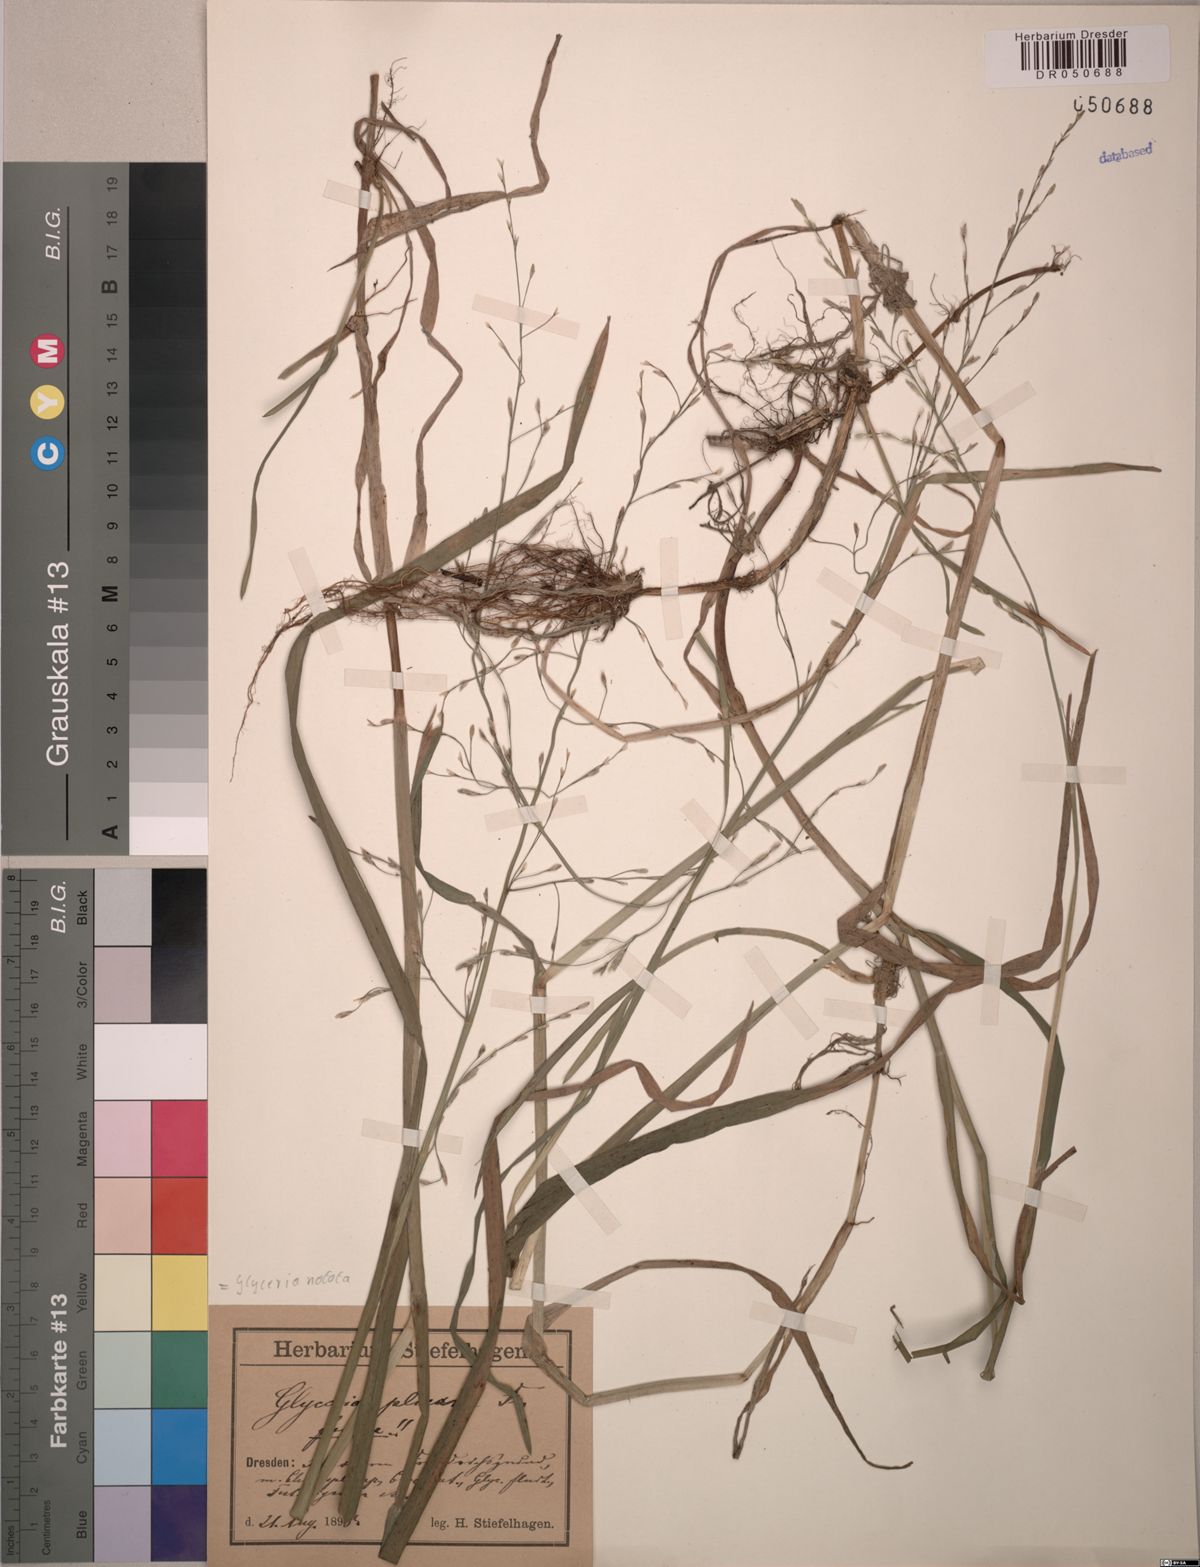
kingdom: Plantae
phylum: Tracheophyta
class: Liliopsida
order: Poales
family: Poaceae
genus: Glyceria
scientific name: Glyceria notata
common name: Plicate sweet-grass
